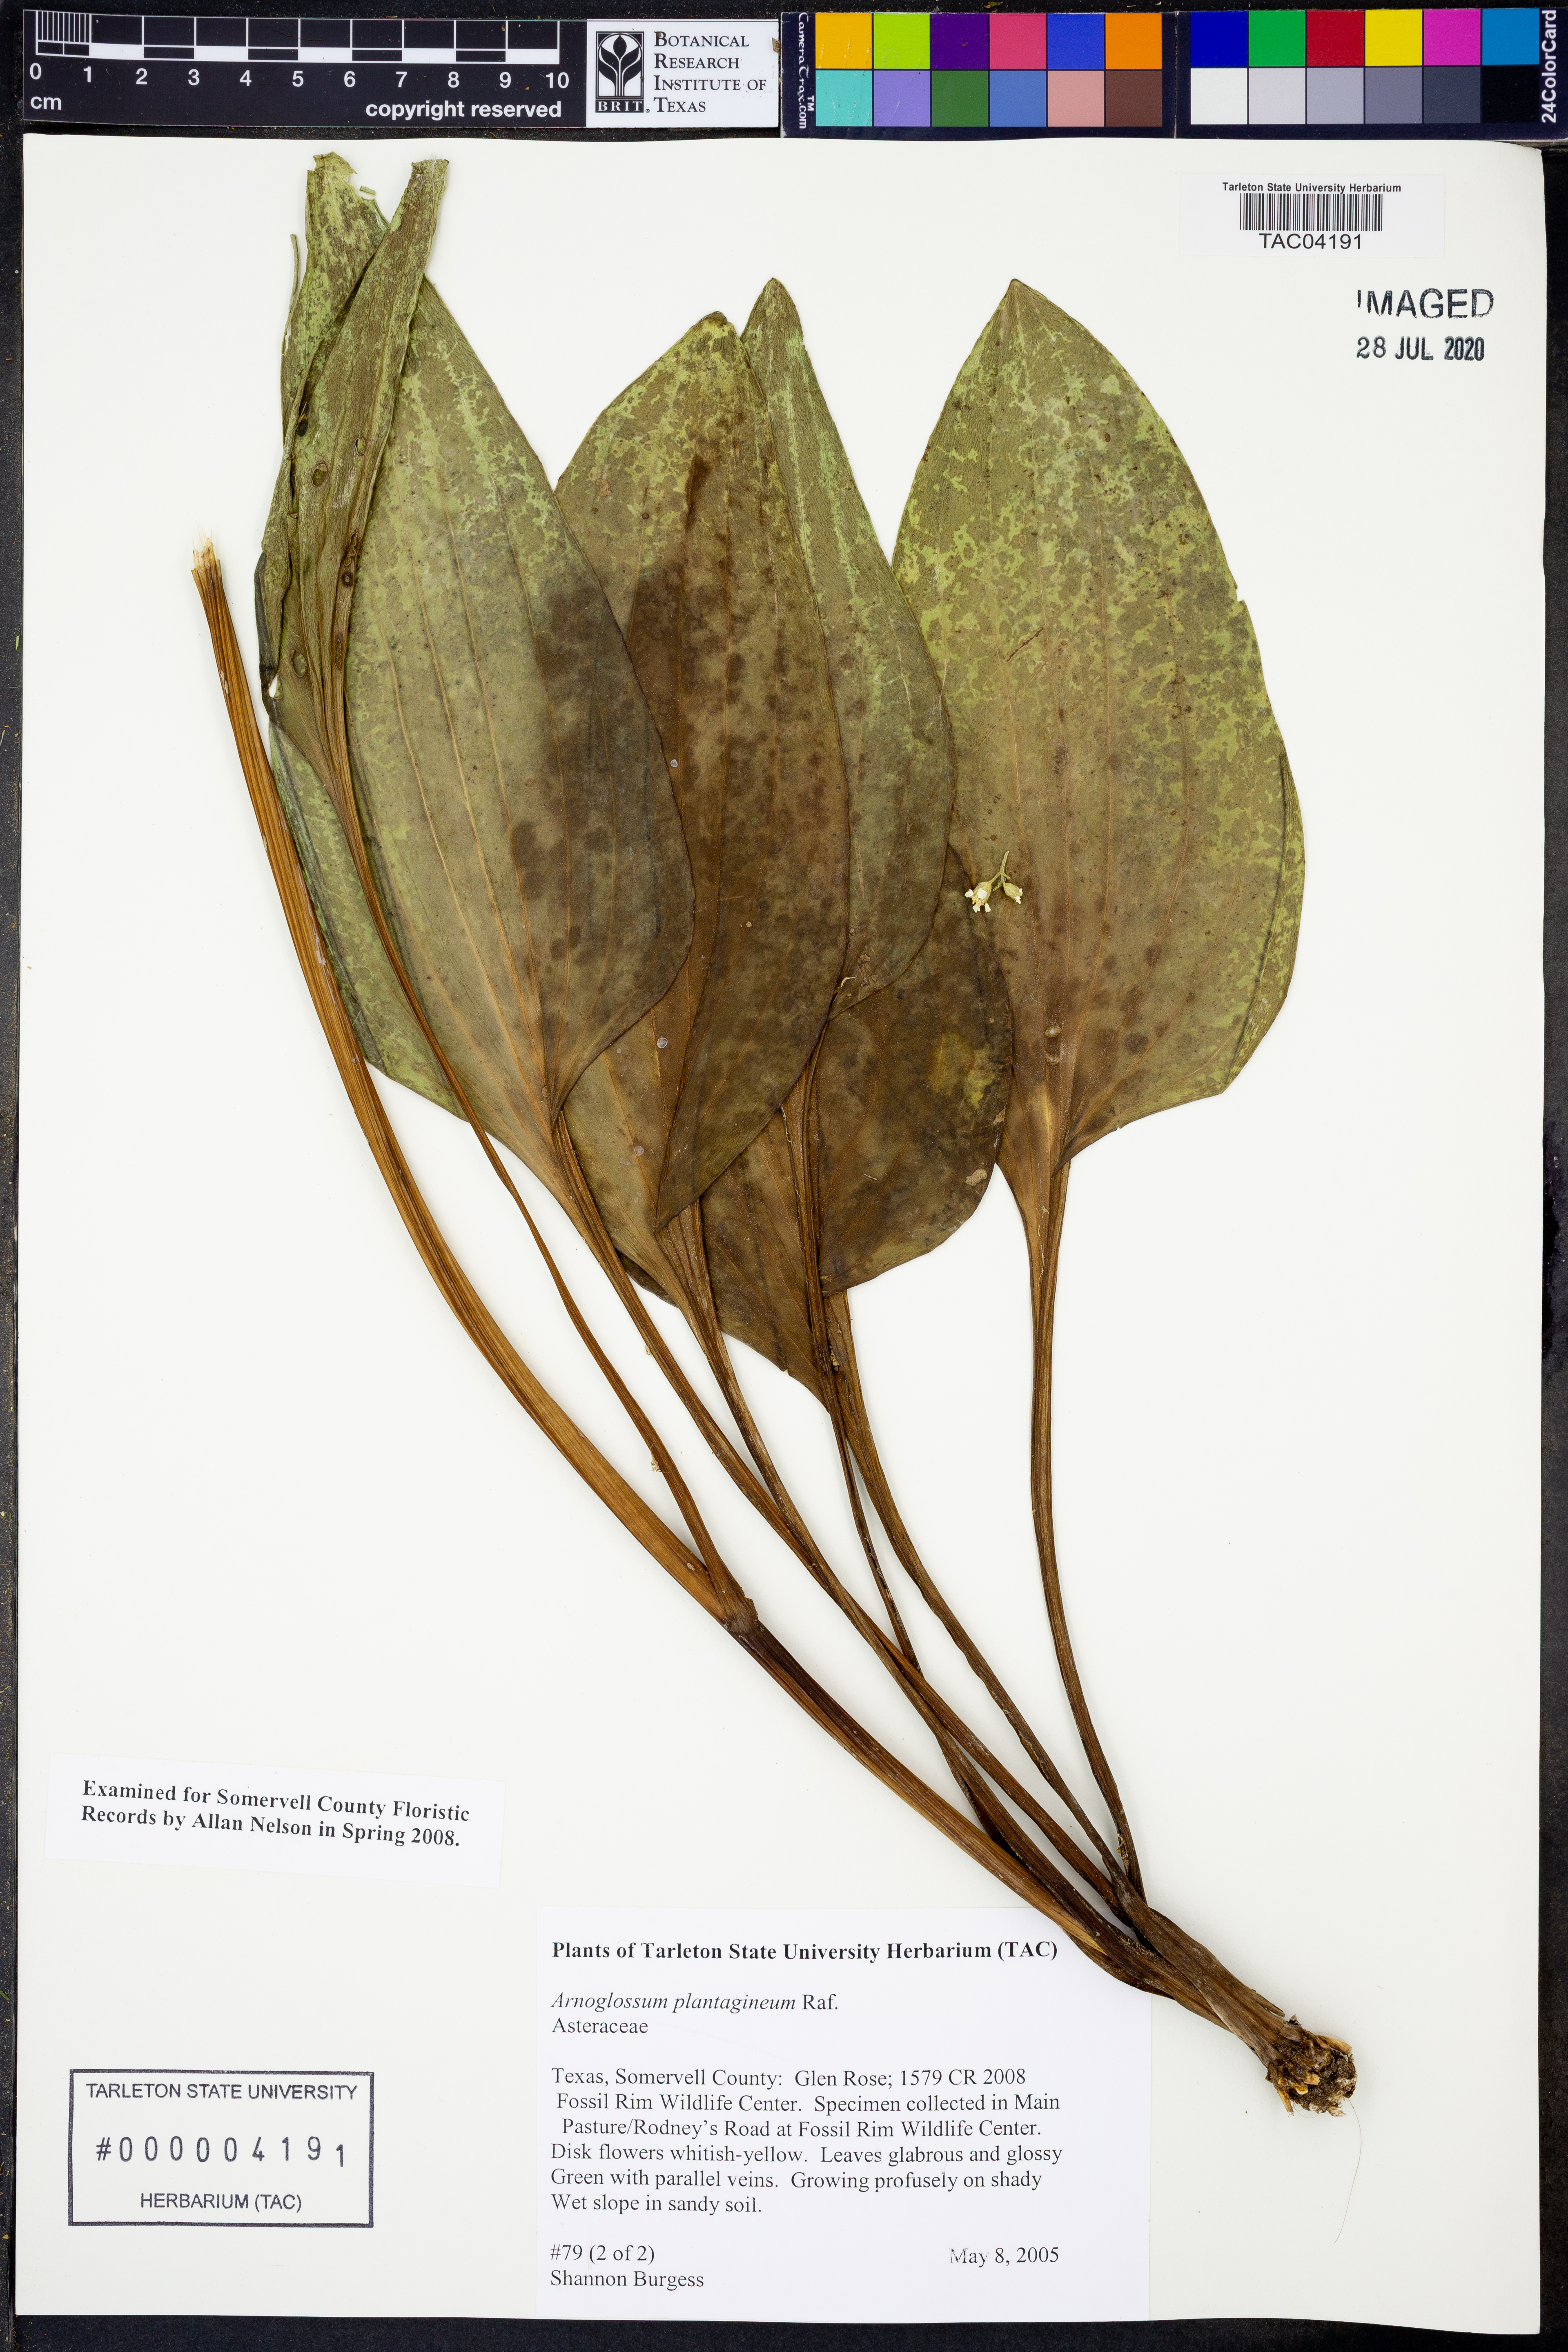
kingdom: Plantae
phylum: Tracheophyta
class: Magnoliopsida
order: Asterales
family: Asteraceae
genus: Arnoglossum
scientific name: Arnoglossum plantagineum
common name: Groove-stemmed indian-plantain
